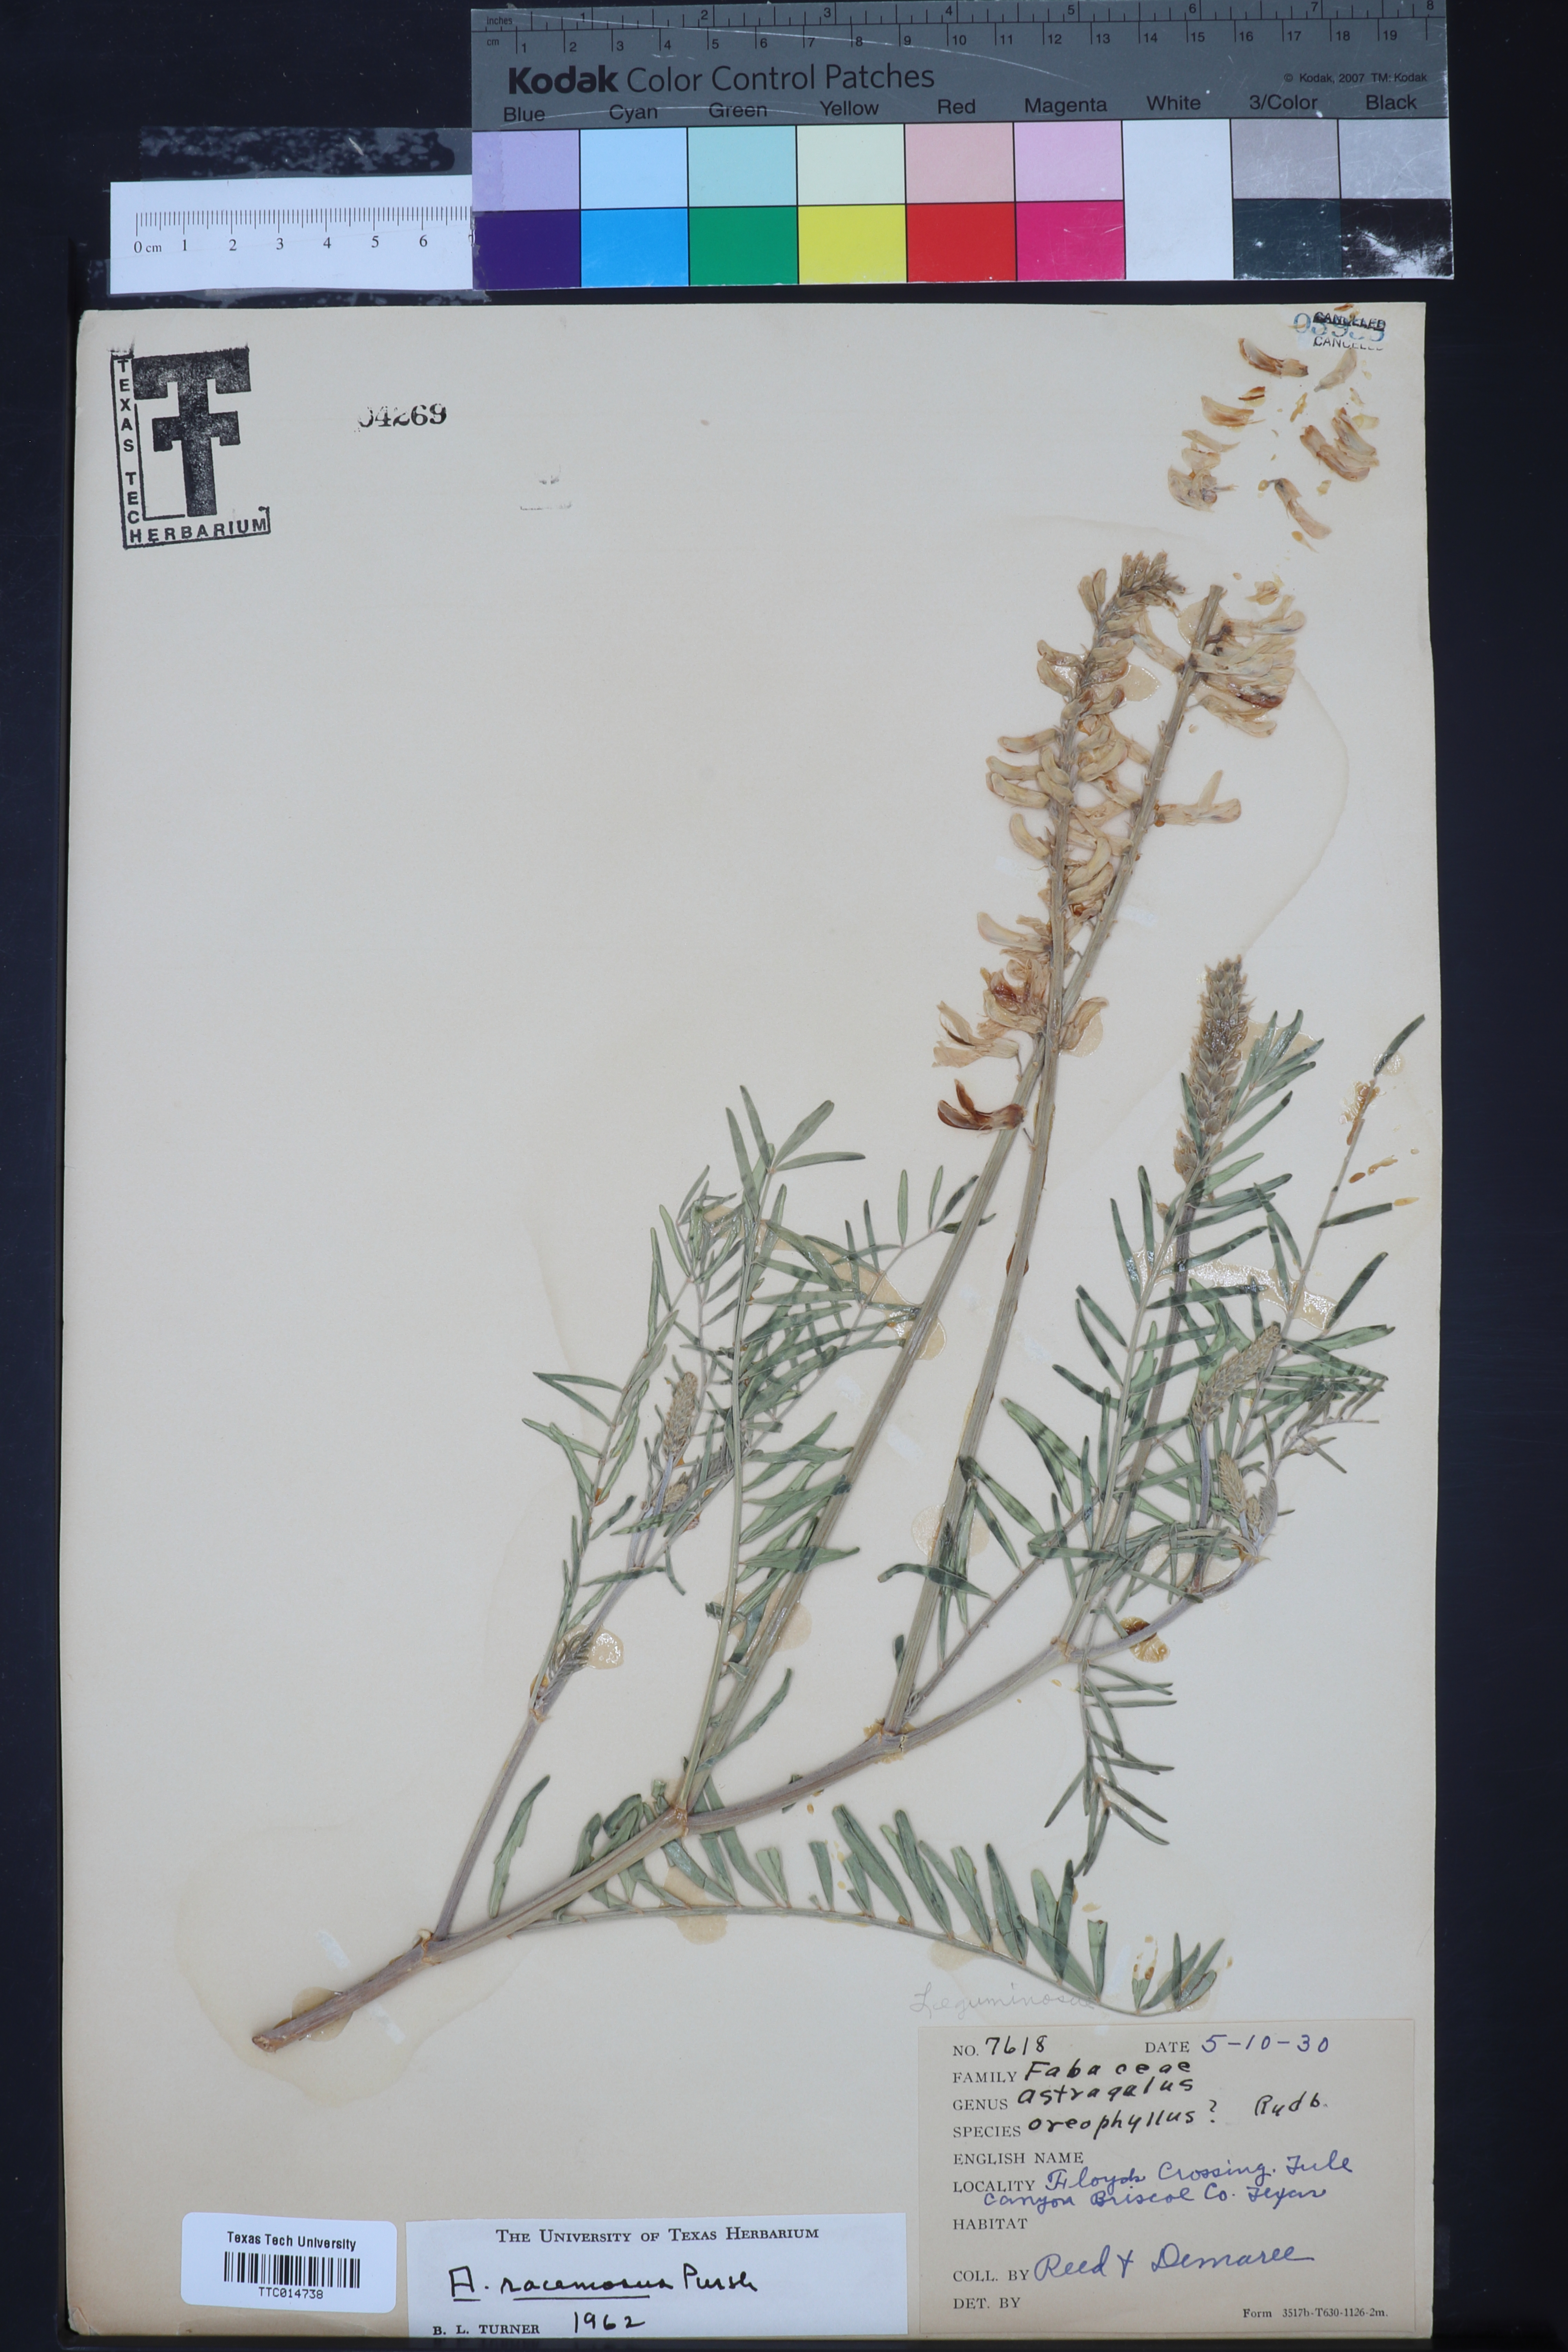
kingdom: Plantae
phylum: Tracheophyta
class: Magnoliopsida
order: Fabales
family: Fabaceae
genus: Astragalus
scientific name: Astragalus racemosus
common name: Alkali milk-vetch
